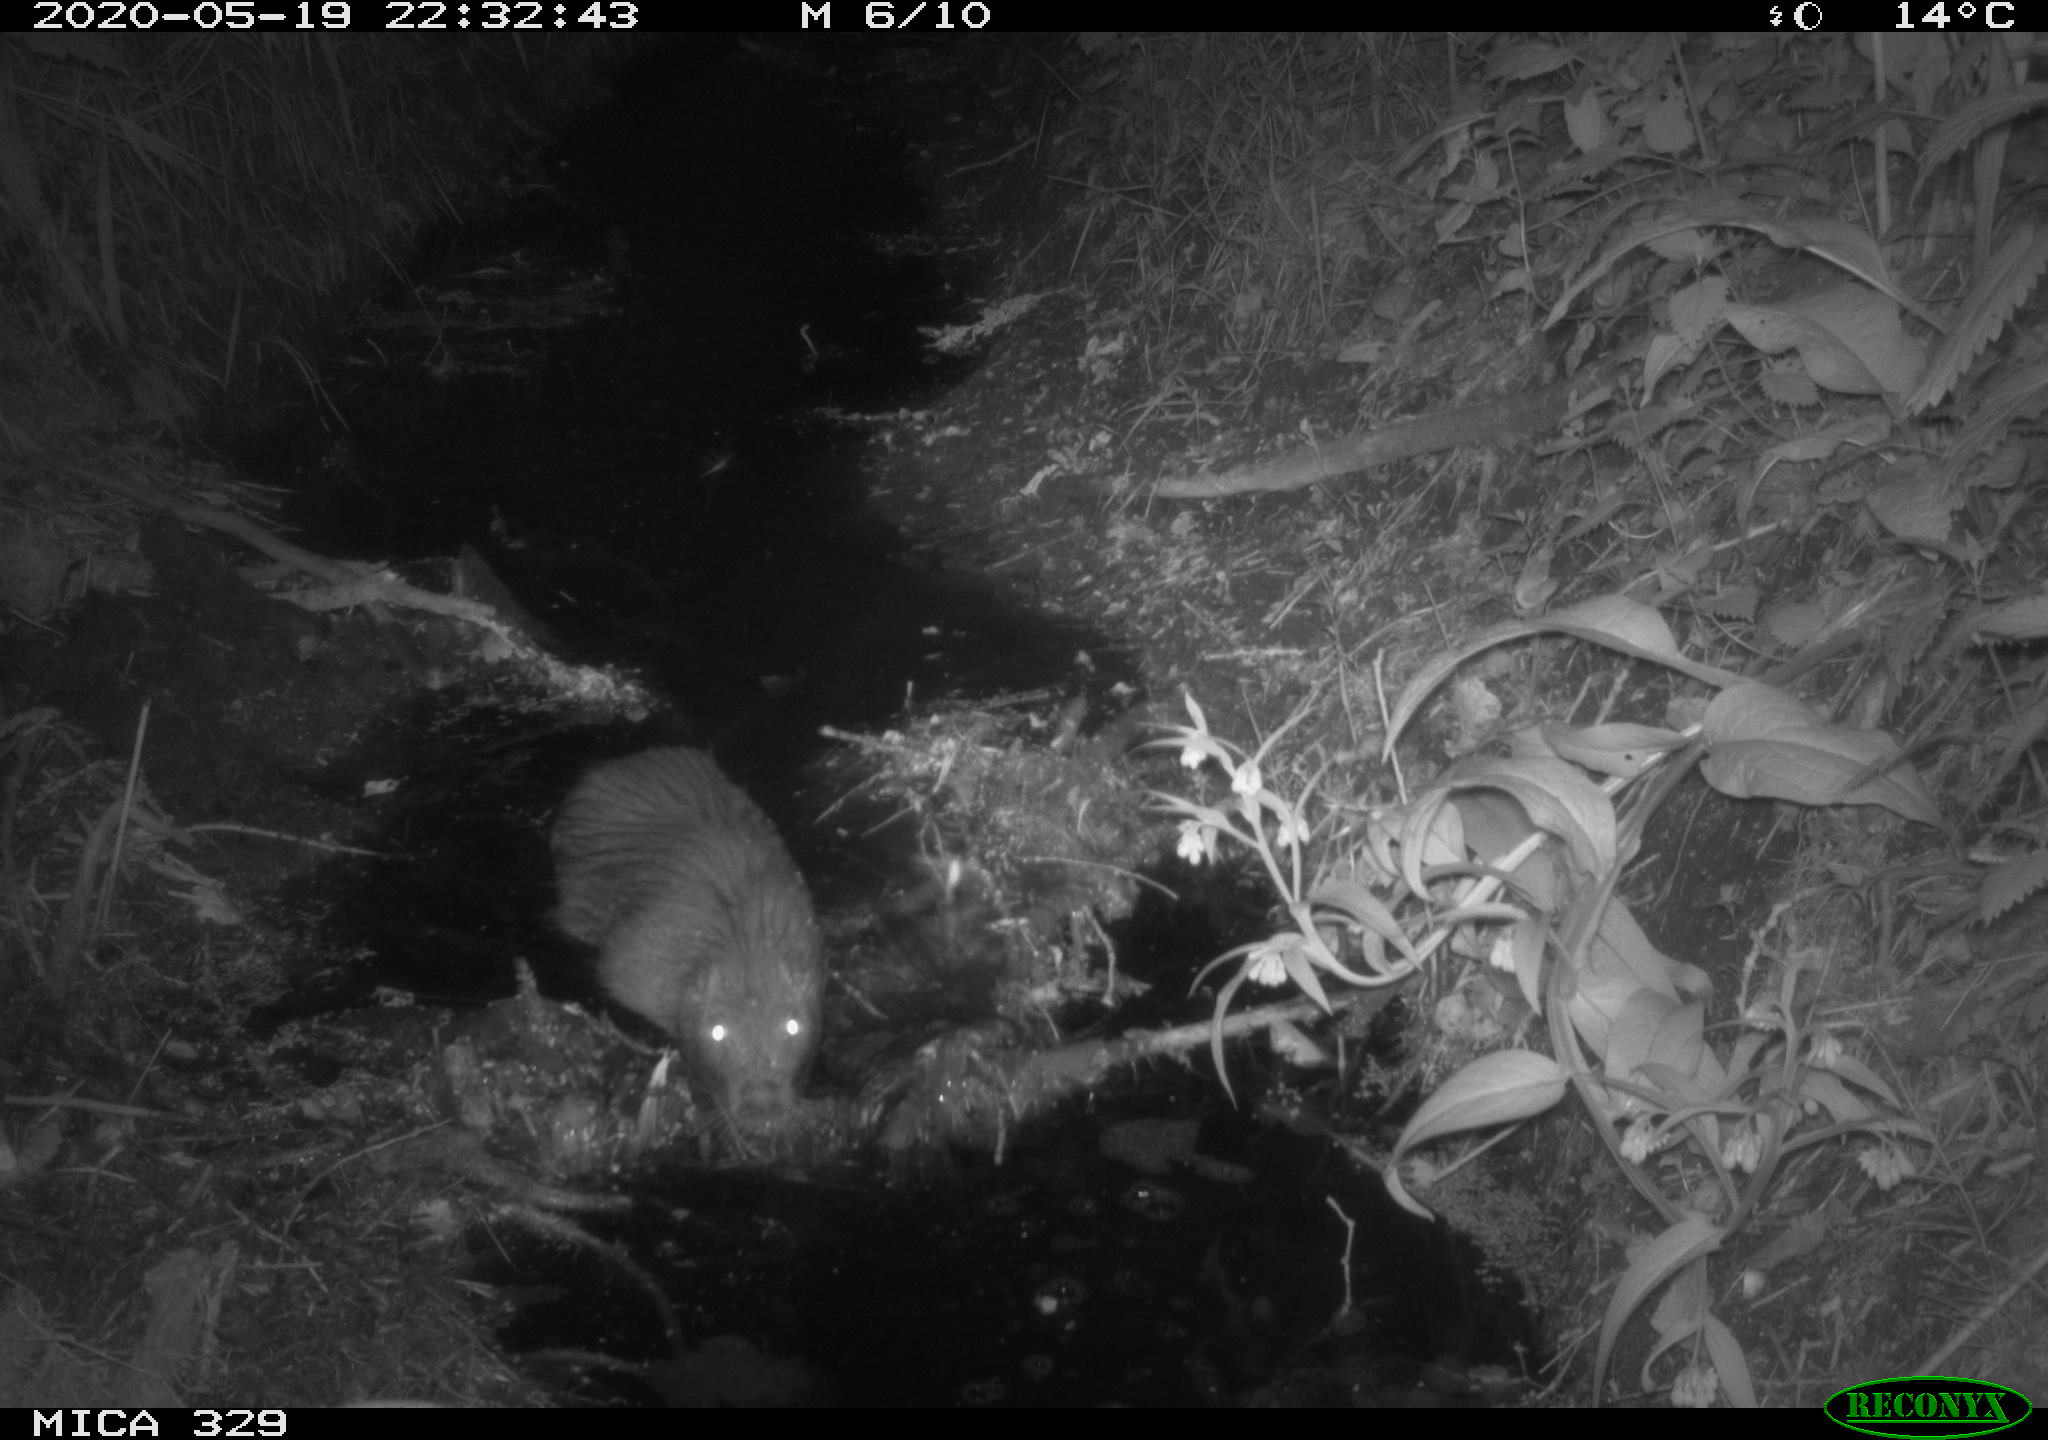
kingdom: Animalia
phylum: Chordata
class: Mammalia
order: Rodentia
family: Myocastoridae
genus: Myocastor
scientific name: Myocastor coypus
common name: Coypu
